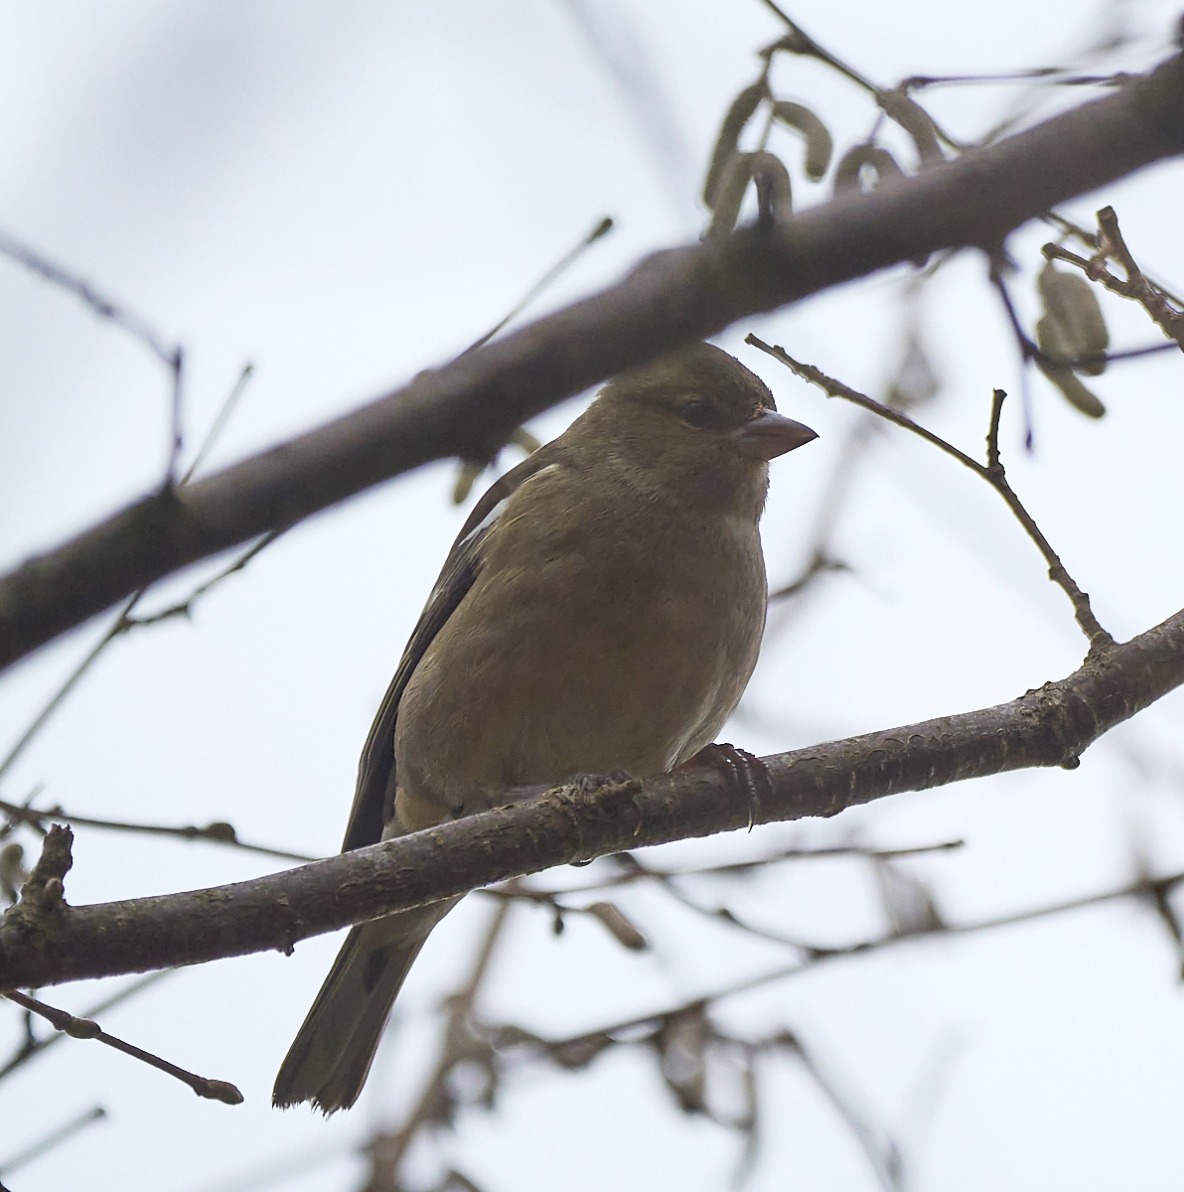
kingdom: Animalia
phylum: Chordata
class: Aves
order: Passeriformes
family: Fringillidae
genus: Fringilla
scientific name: Fringilla coelebs
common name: Bogfinke
